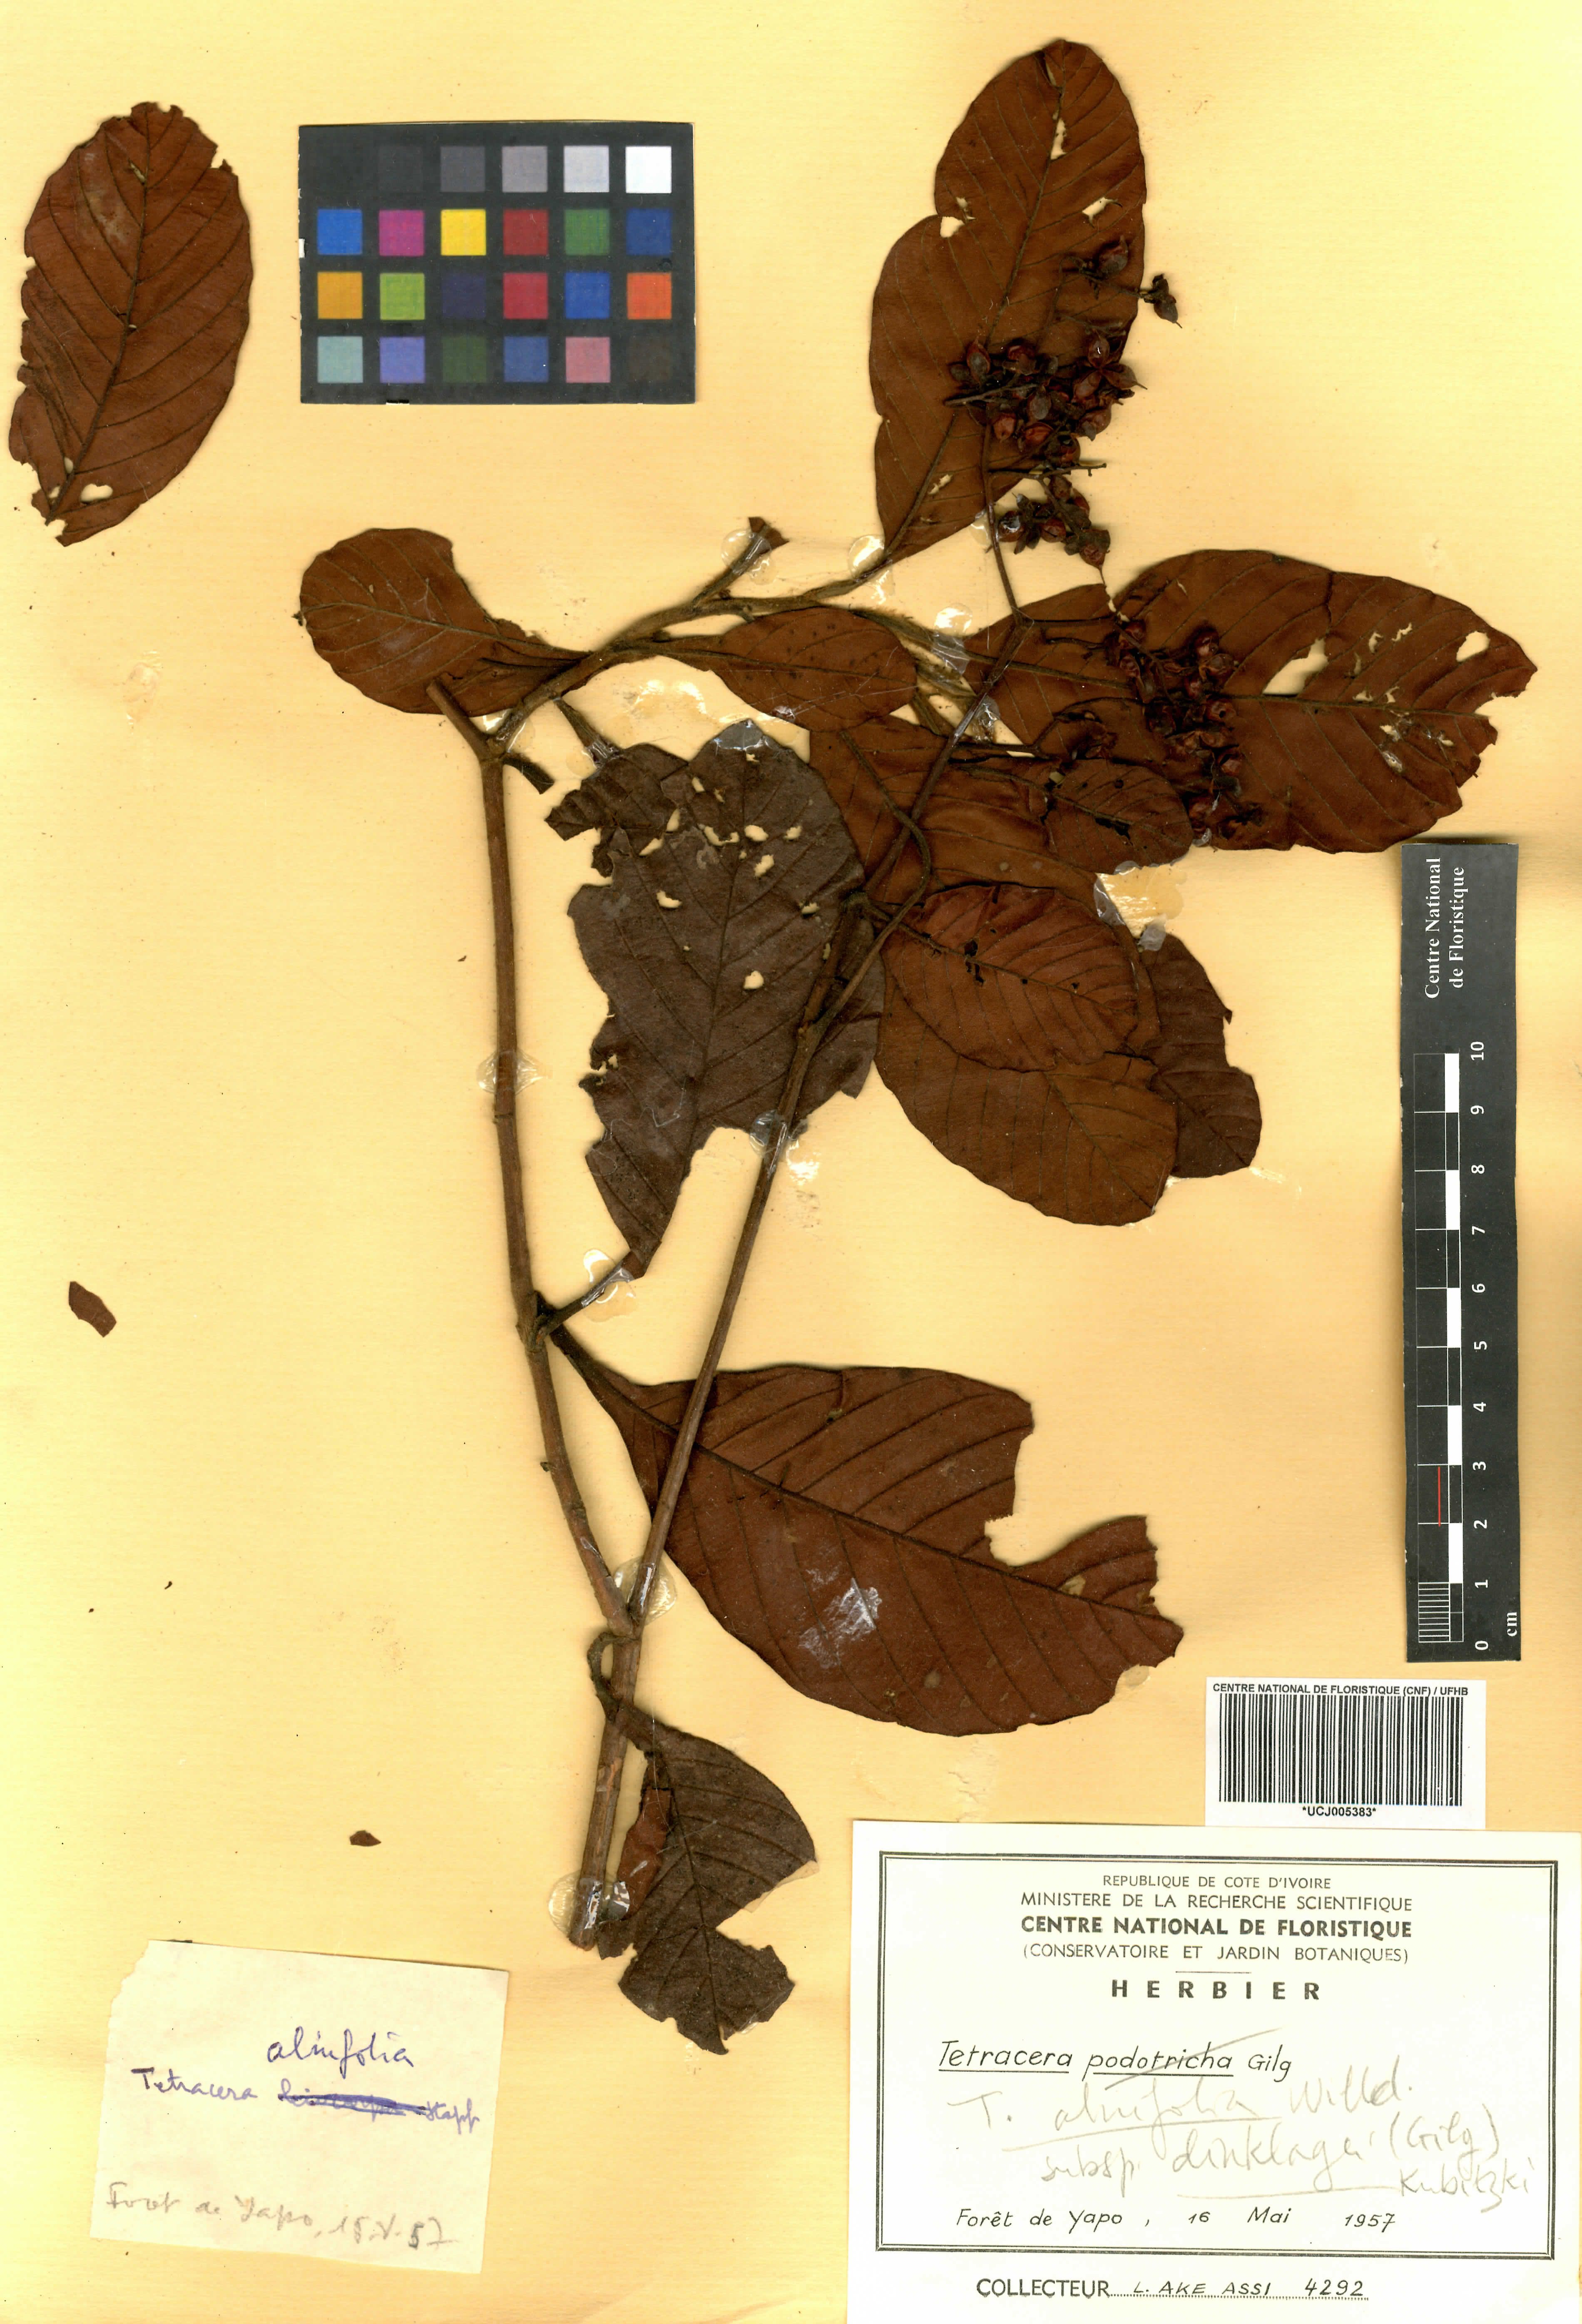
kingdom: Plantae
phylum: Tracheophyta
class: Magnoliopsida
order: Dilleniales
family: Dilleniaceae
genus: Tetracera
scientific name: Tetracera alnifolia
